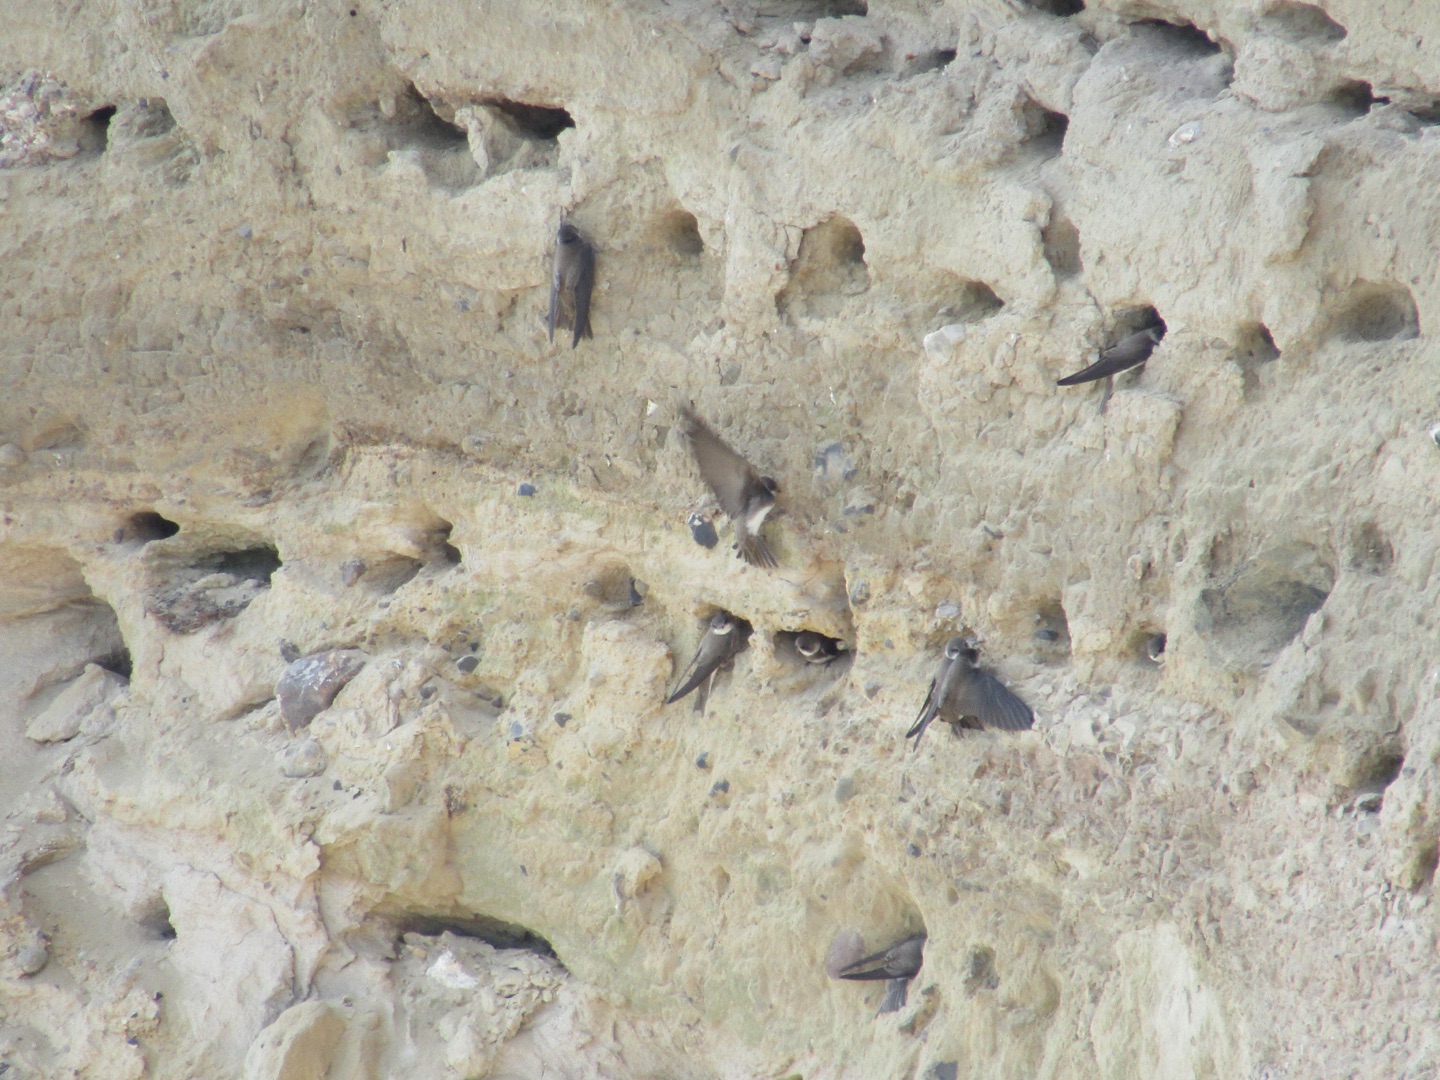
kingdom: Animalia
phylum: Chordata
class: Aves
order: Passeriformes
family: Hirundinidae
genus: Riparia
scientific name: Riparia riparia
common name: Digesvale
